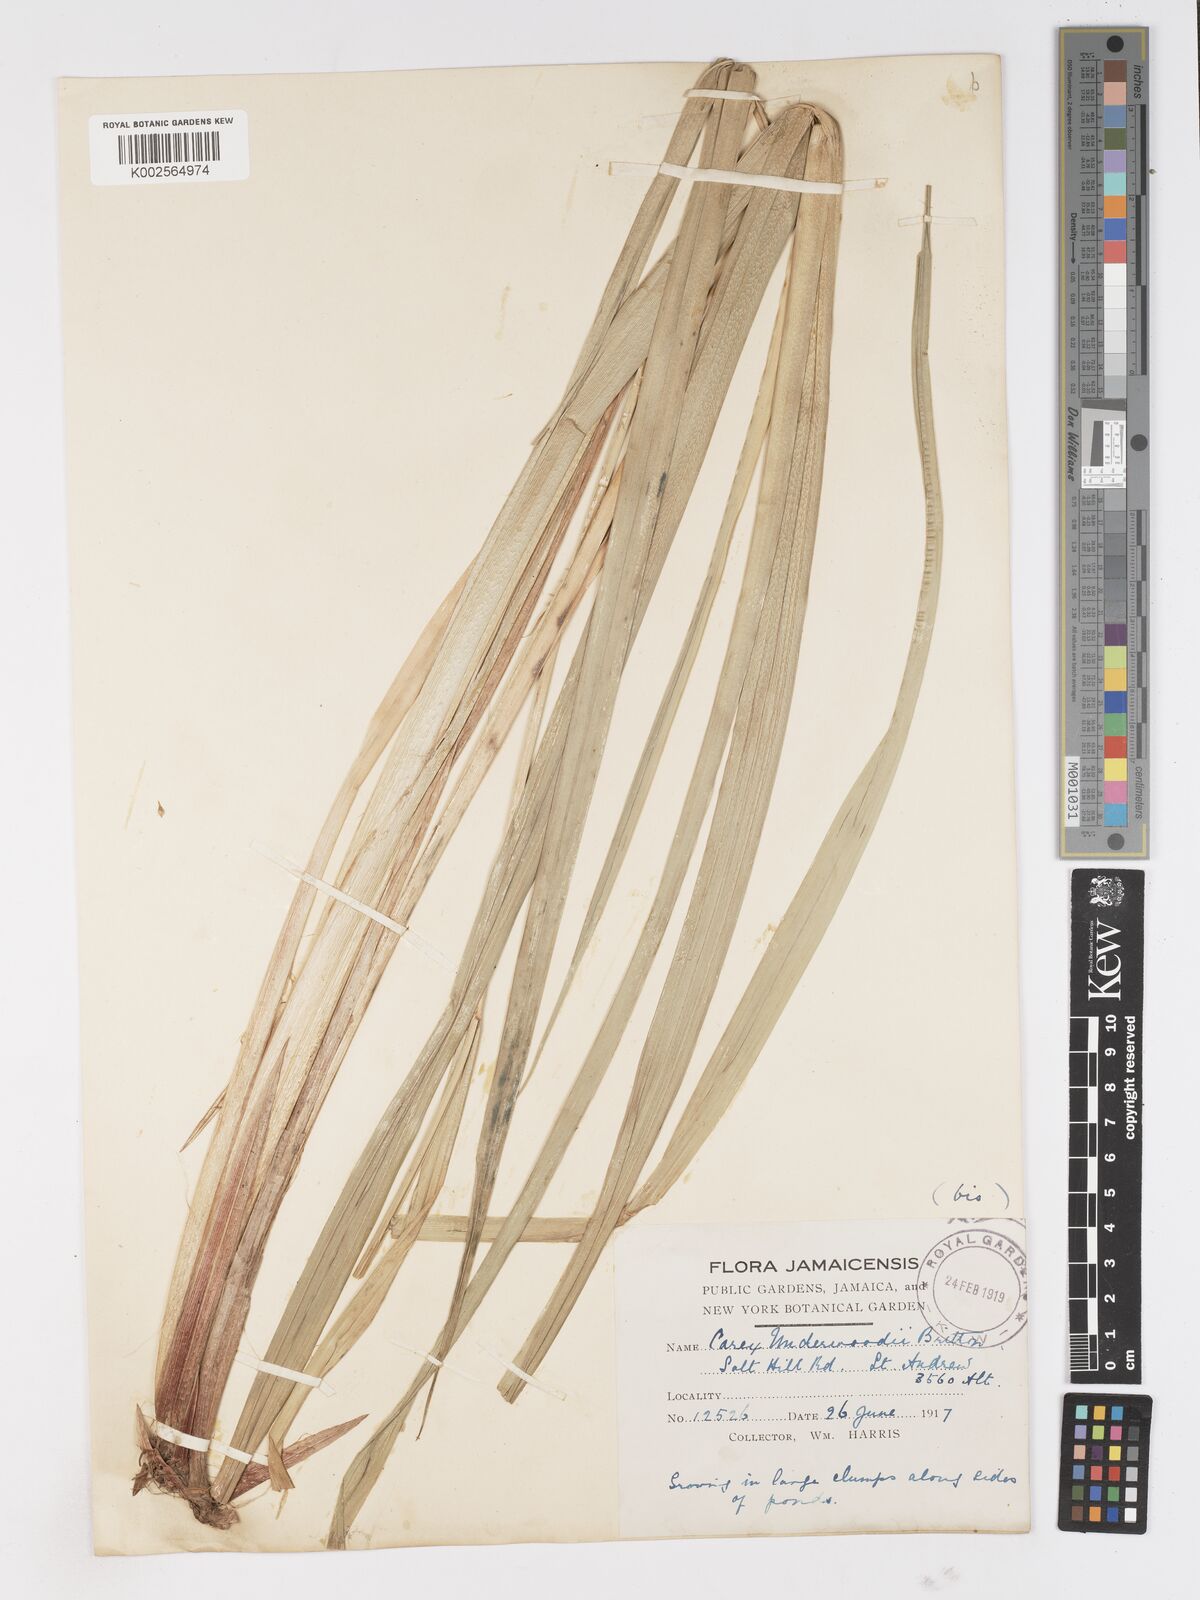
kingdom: Plantae
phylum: Tracheophyta
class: Liliopsida
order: Poales
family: Cyperaceae
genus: Carex
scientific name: Carex polysticha
